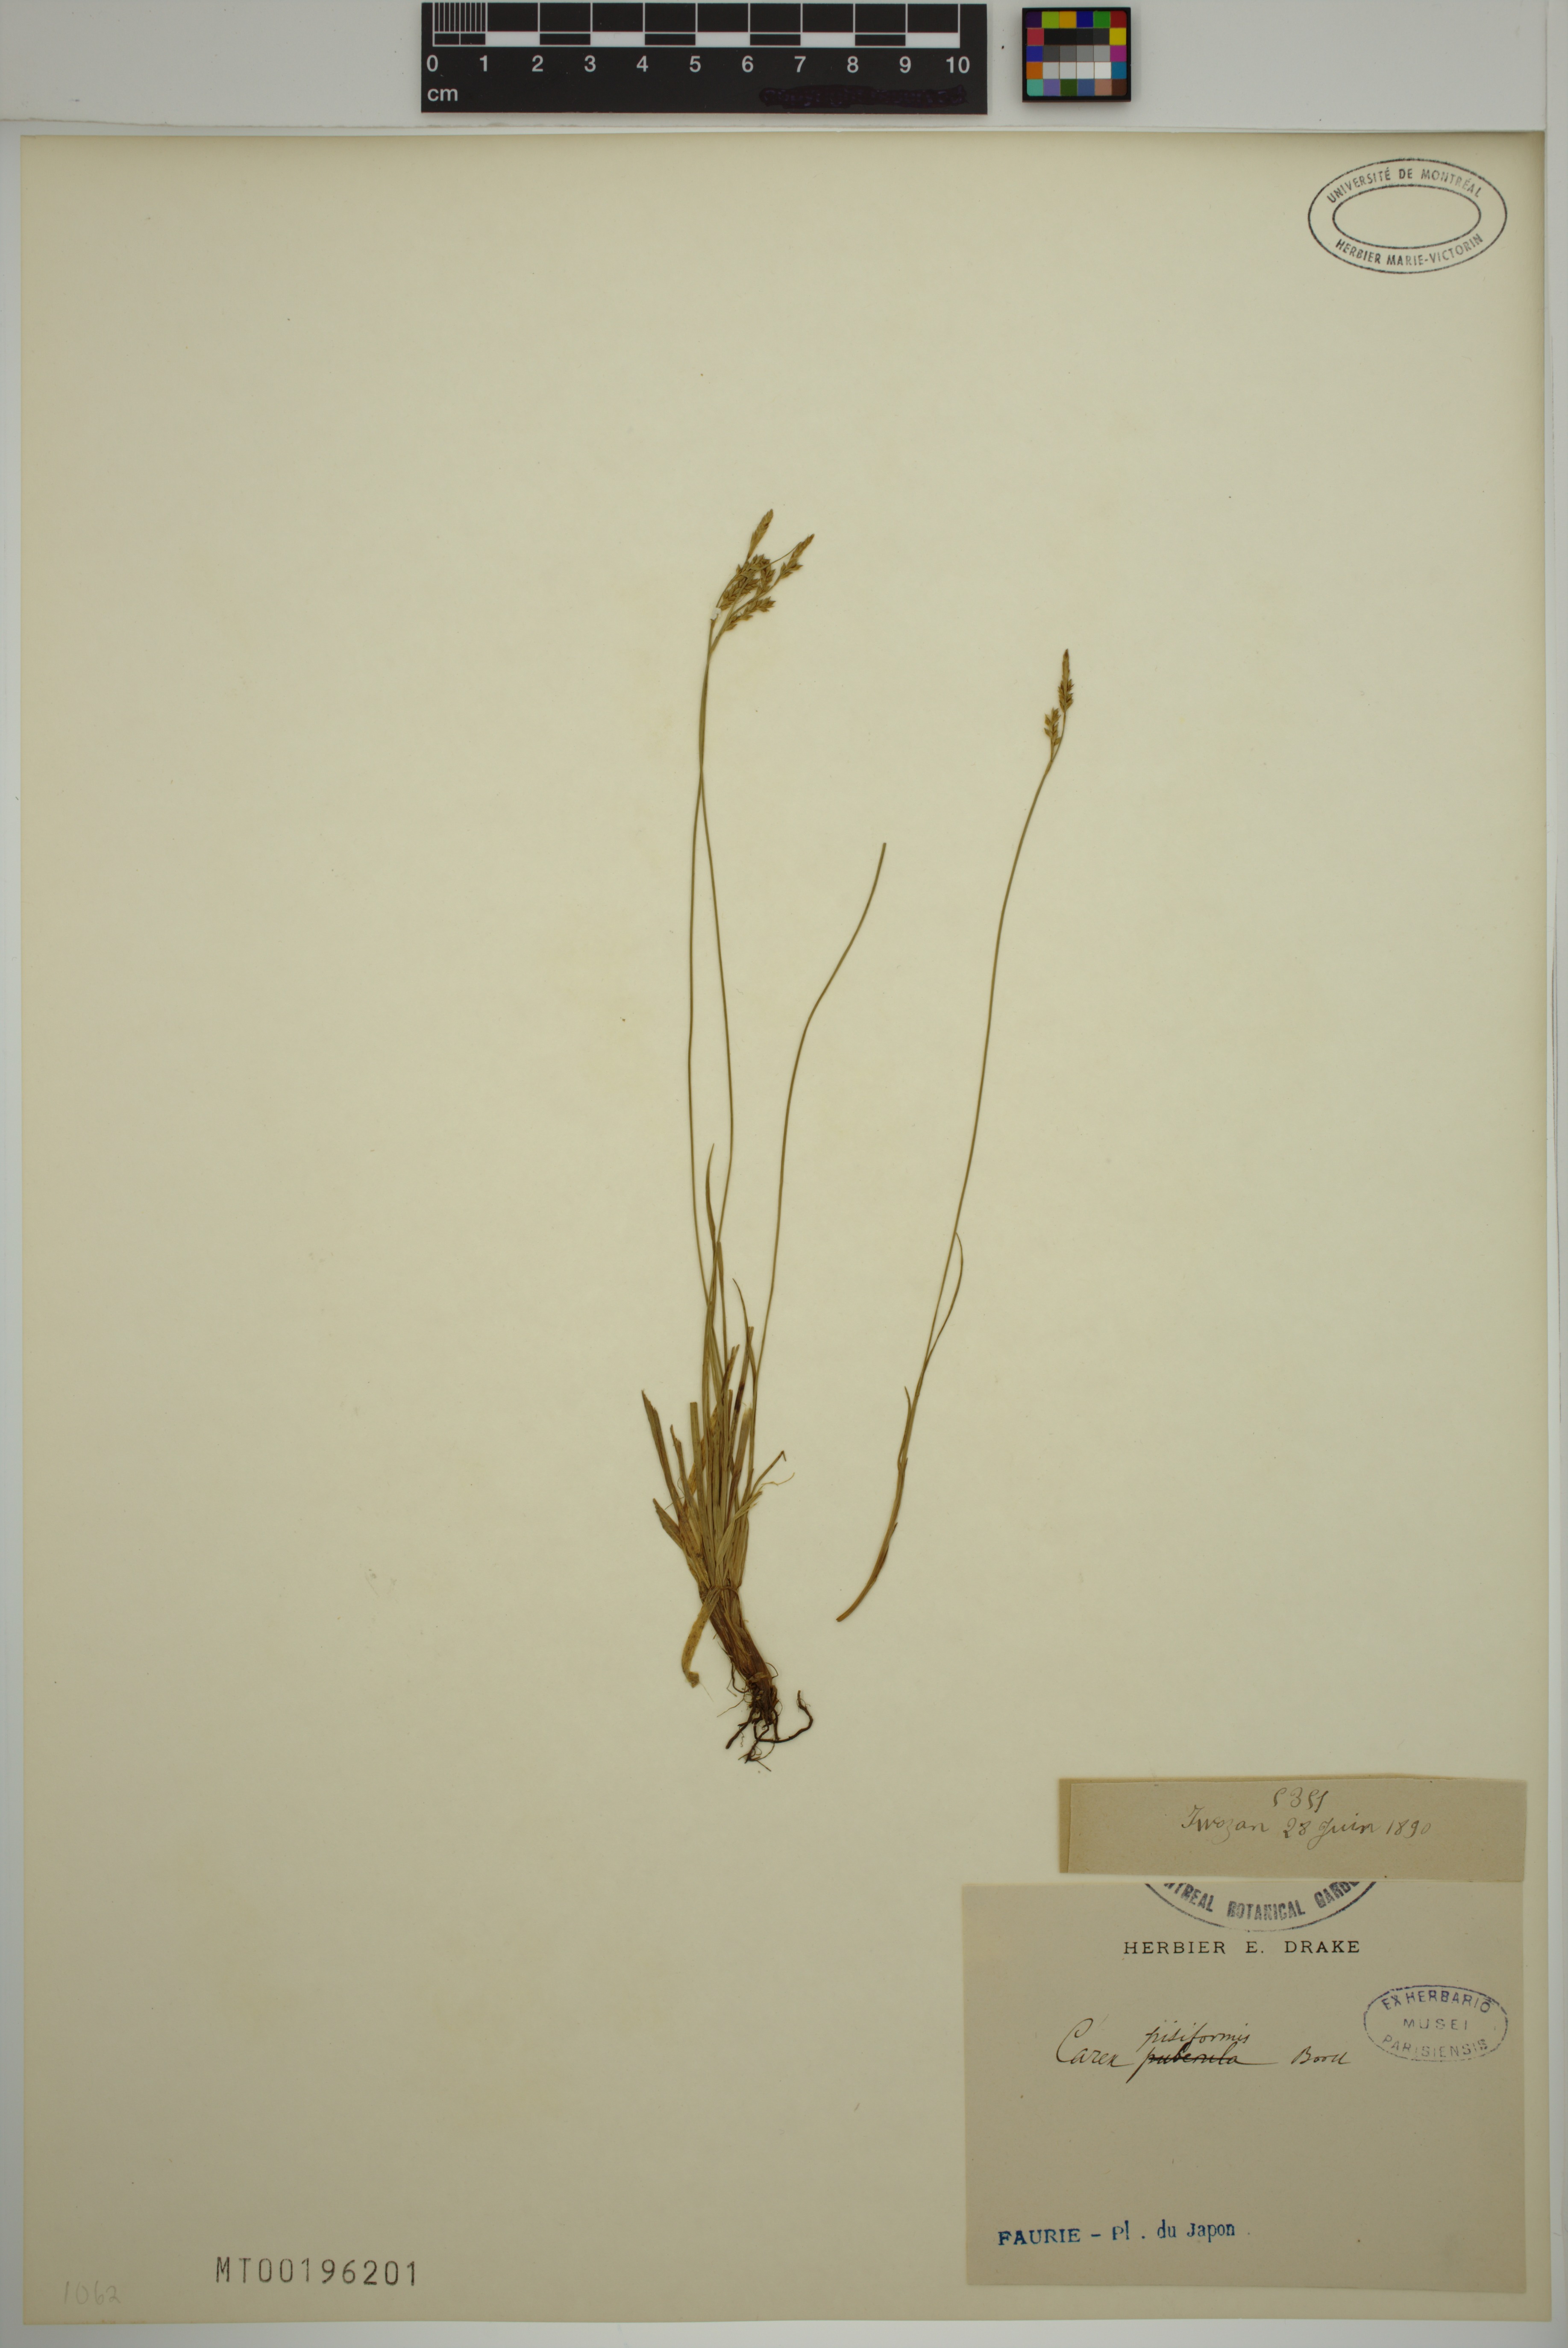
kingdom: Plantae
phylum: Tracheophyta
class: Liliopsida
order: Poales
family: Cyperaceae
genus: Carex
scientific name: Carex pisiformis
